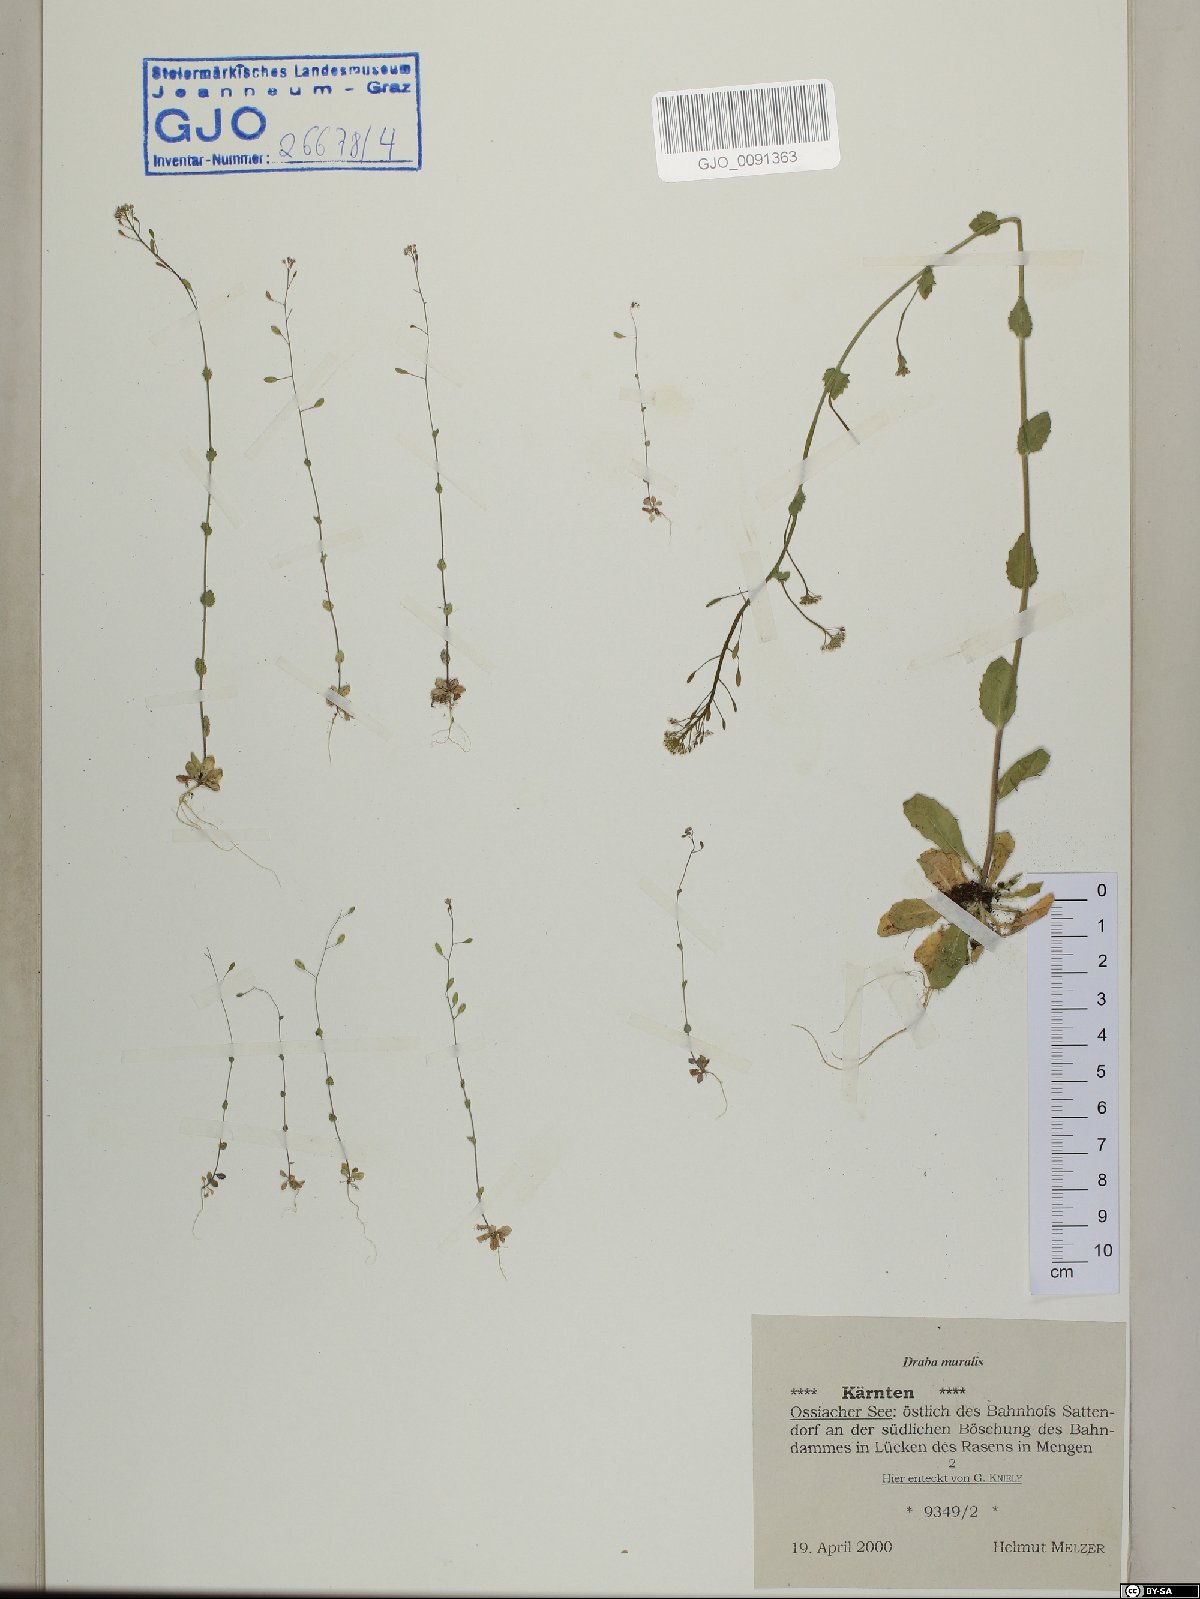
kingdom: Plantae
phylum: Tracheophyta
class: Magnoliopsida
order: Brassicales
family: Brassicaceae
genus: Drabella
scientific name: Drabella muralis
